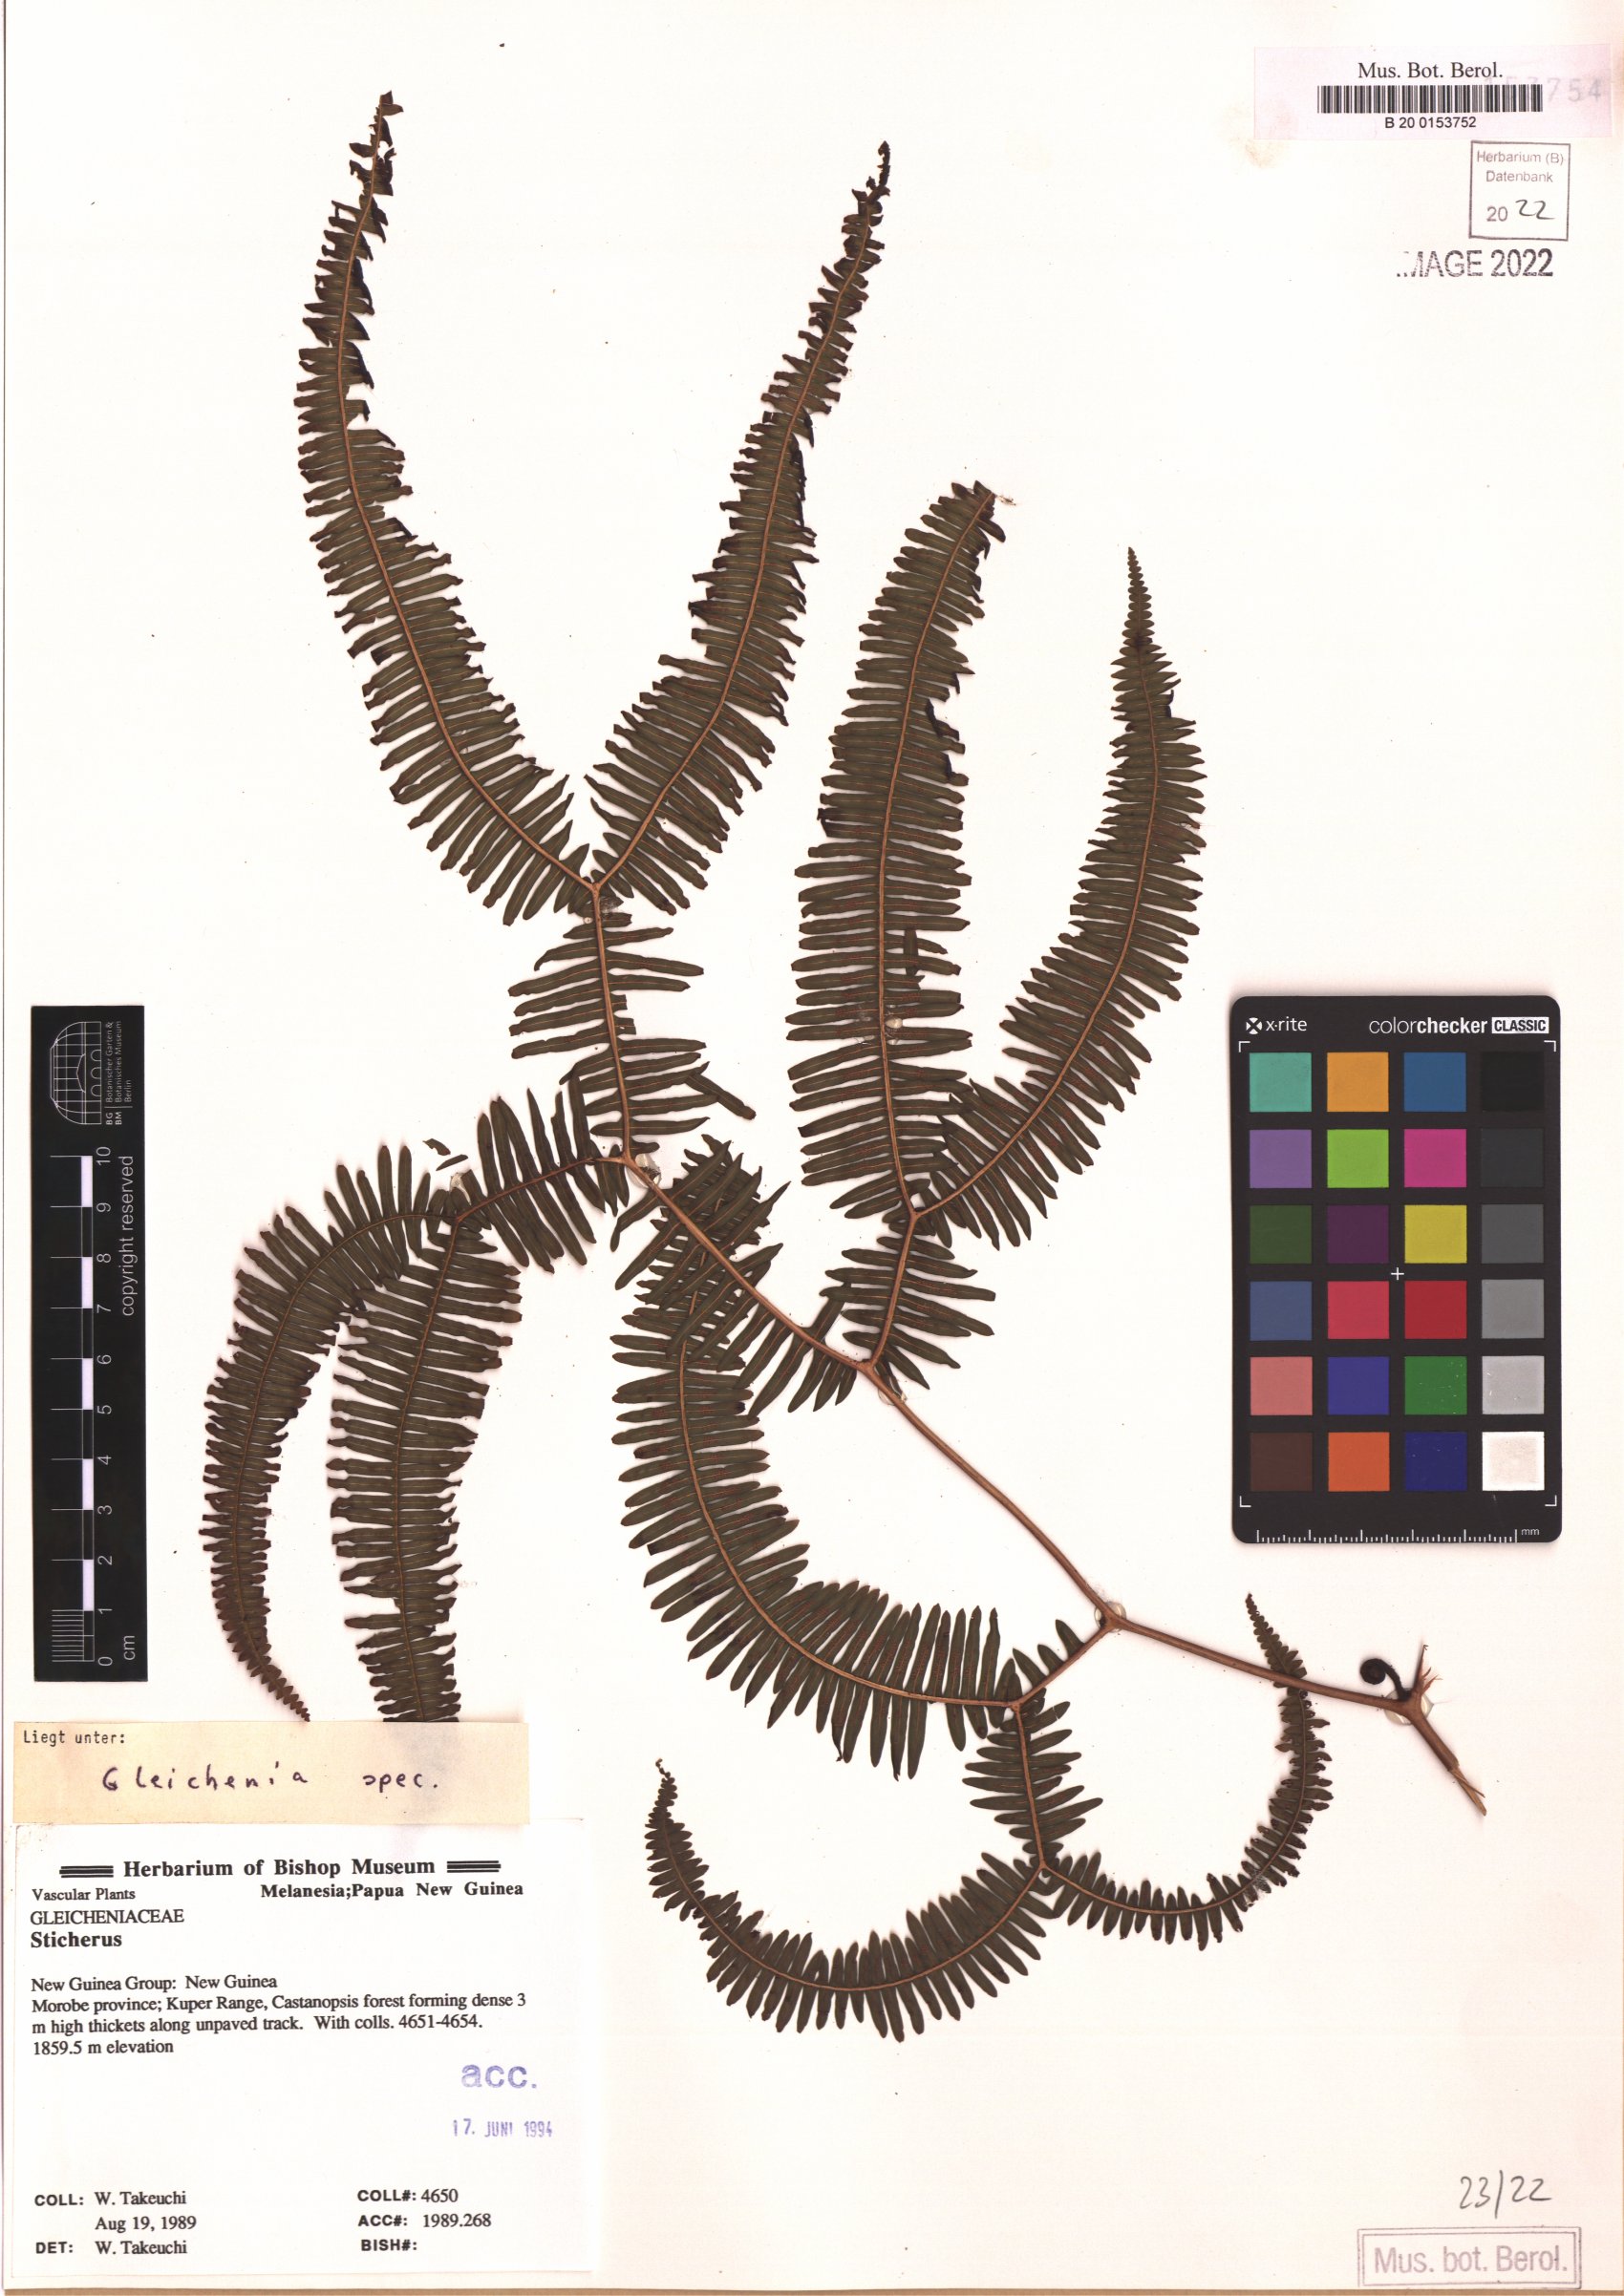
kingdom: Plantae
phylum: Tracheophyta
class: Polypodiopsida
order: Gleicheniales
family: Gleicheniaceae
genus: Gleichenia
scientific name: Gleichenia
